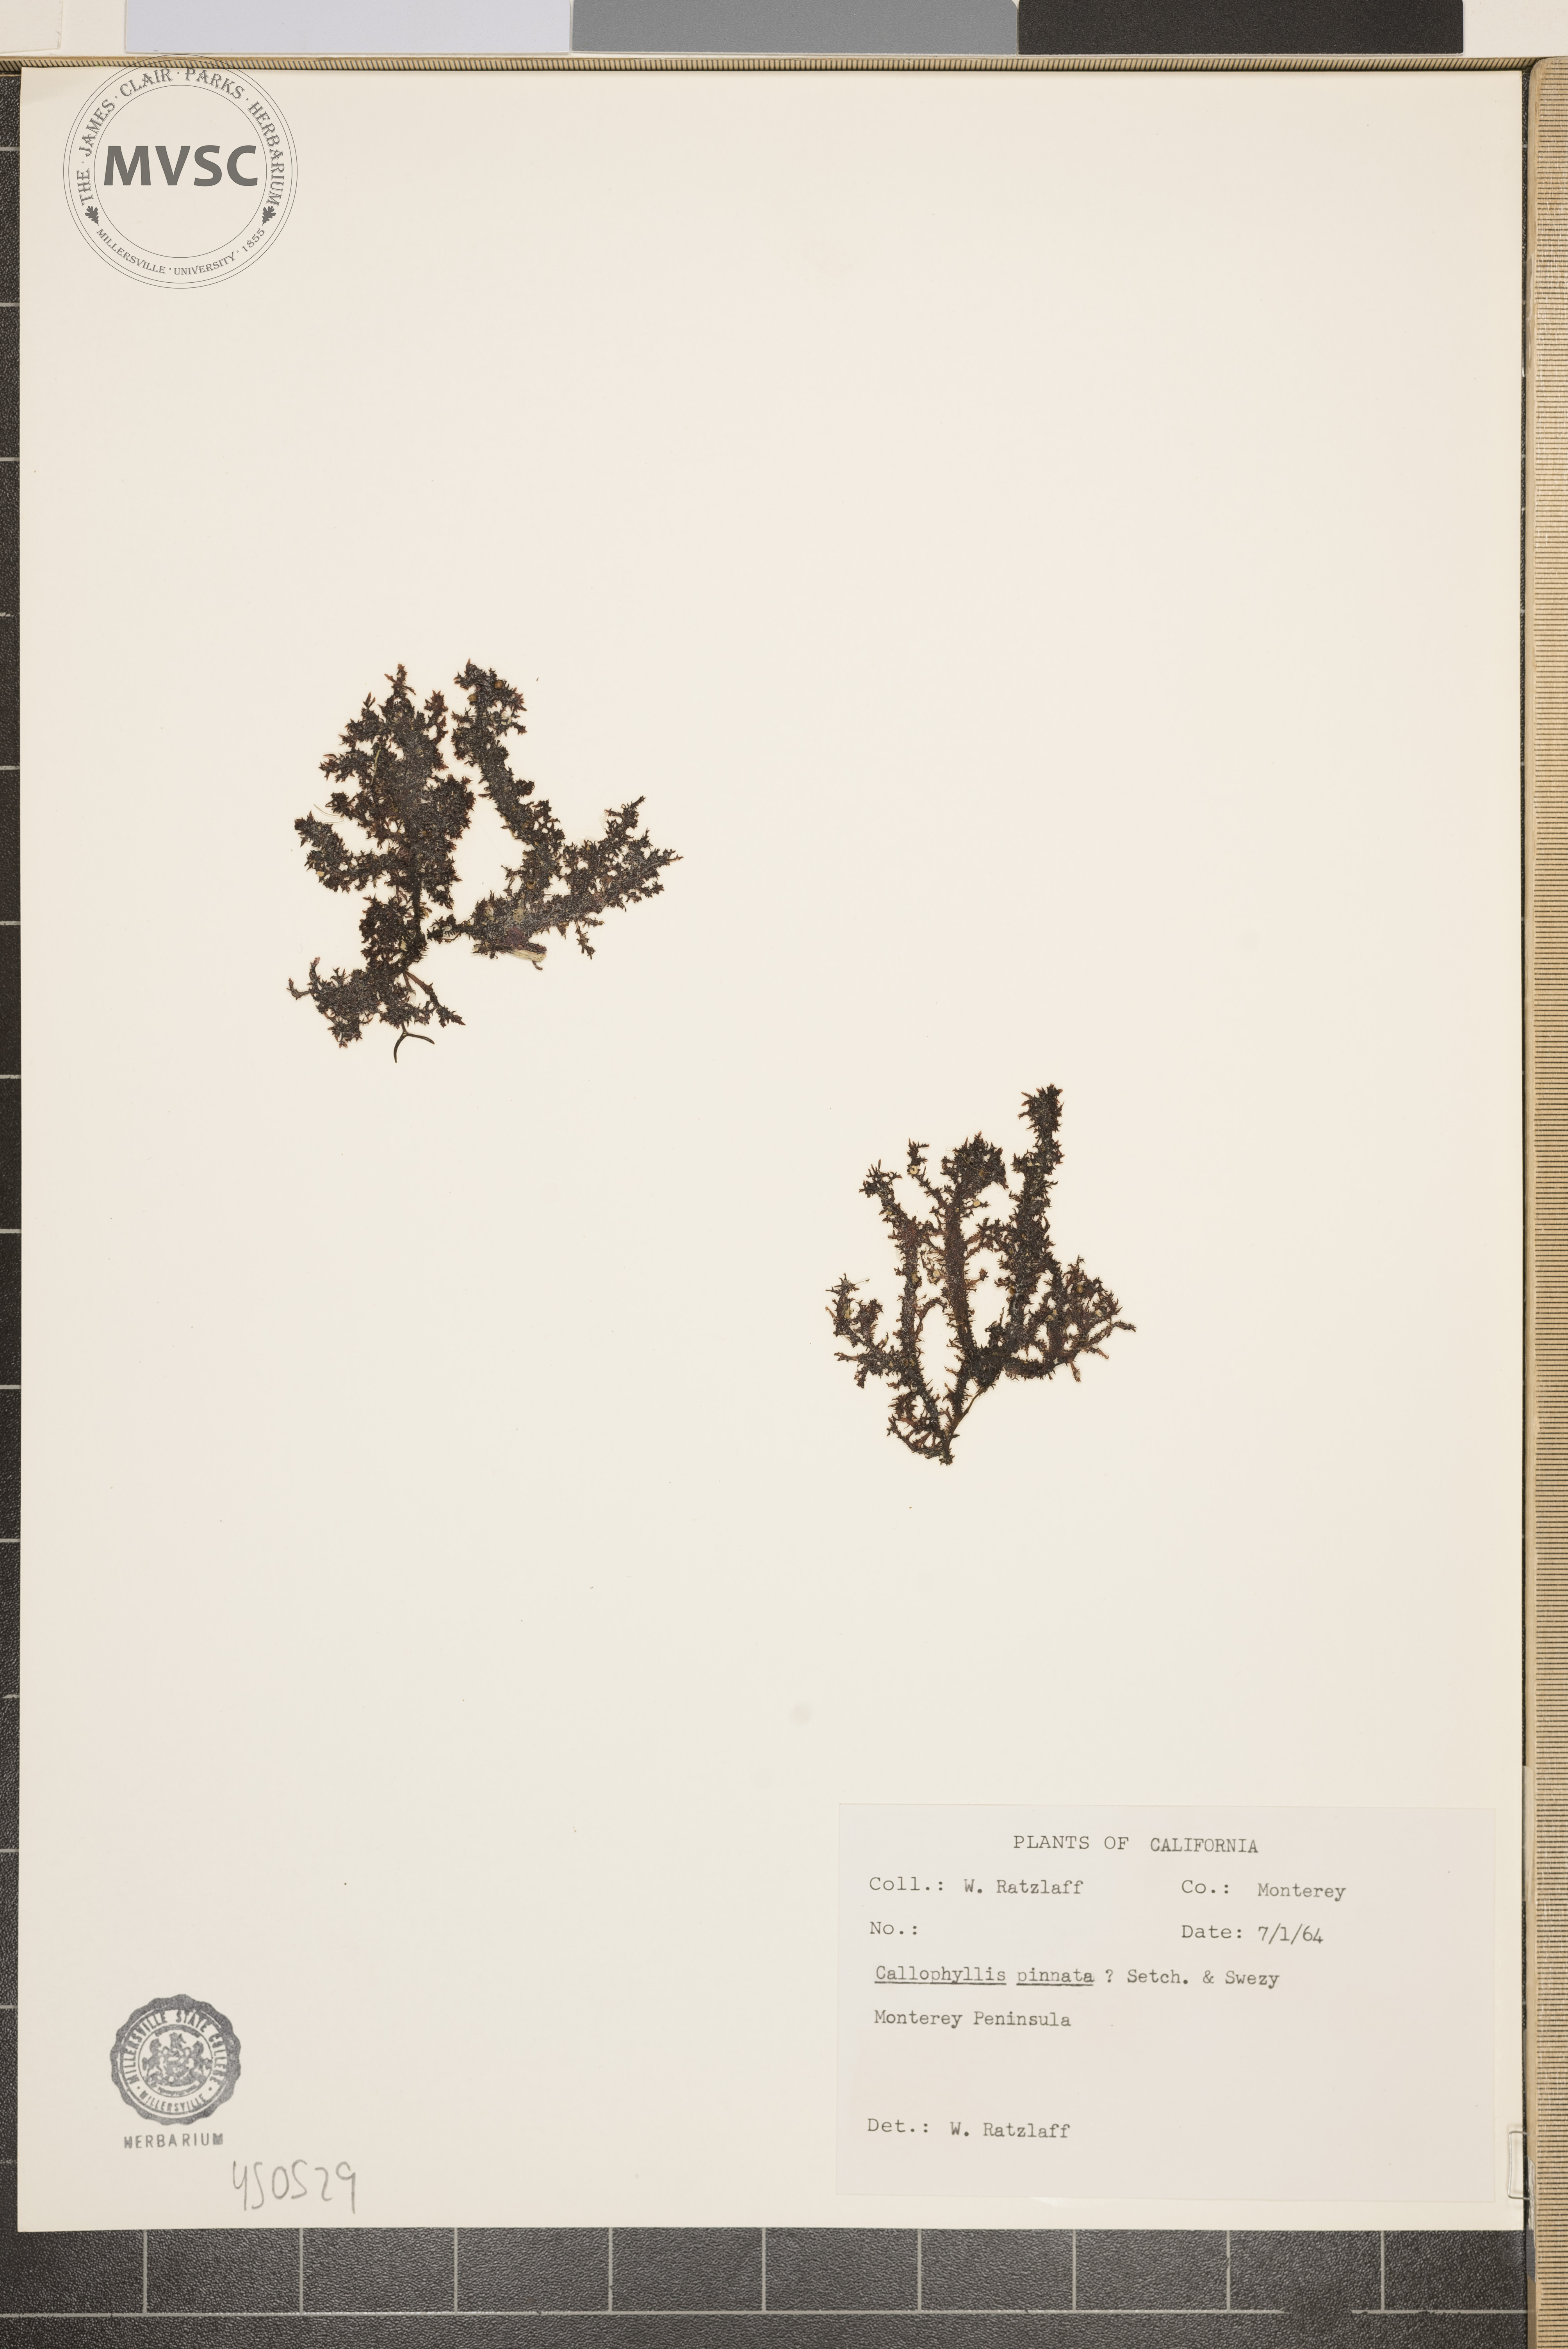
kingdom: Plantae
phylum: Rhodophyta
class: Florideophyceae
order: Gigartinales
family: Kallymeniaceae
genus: Callophyllis
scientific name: Callophyllis pinnata
